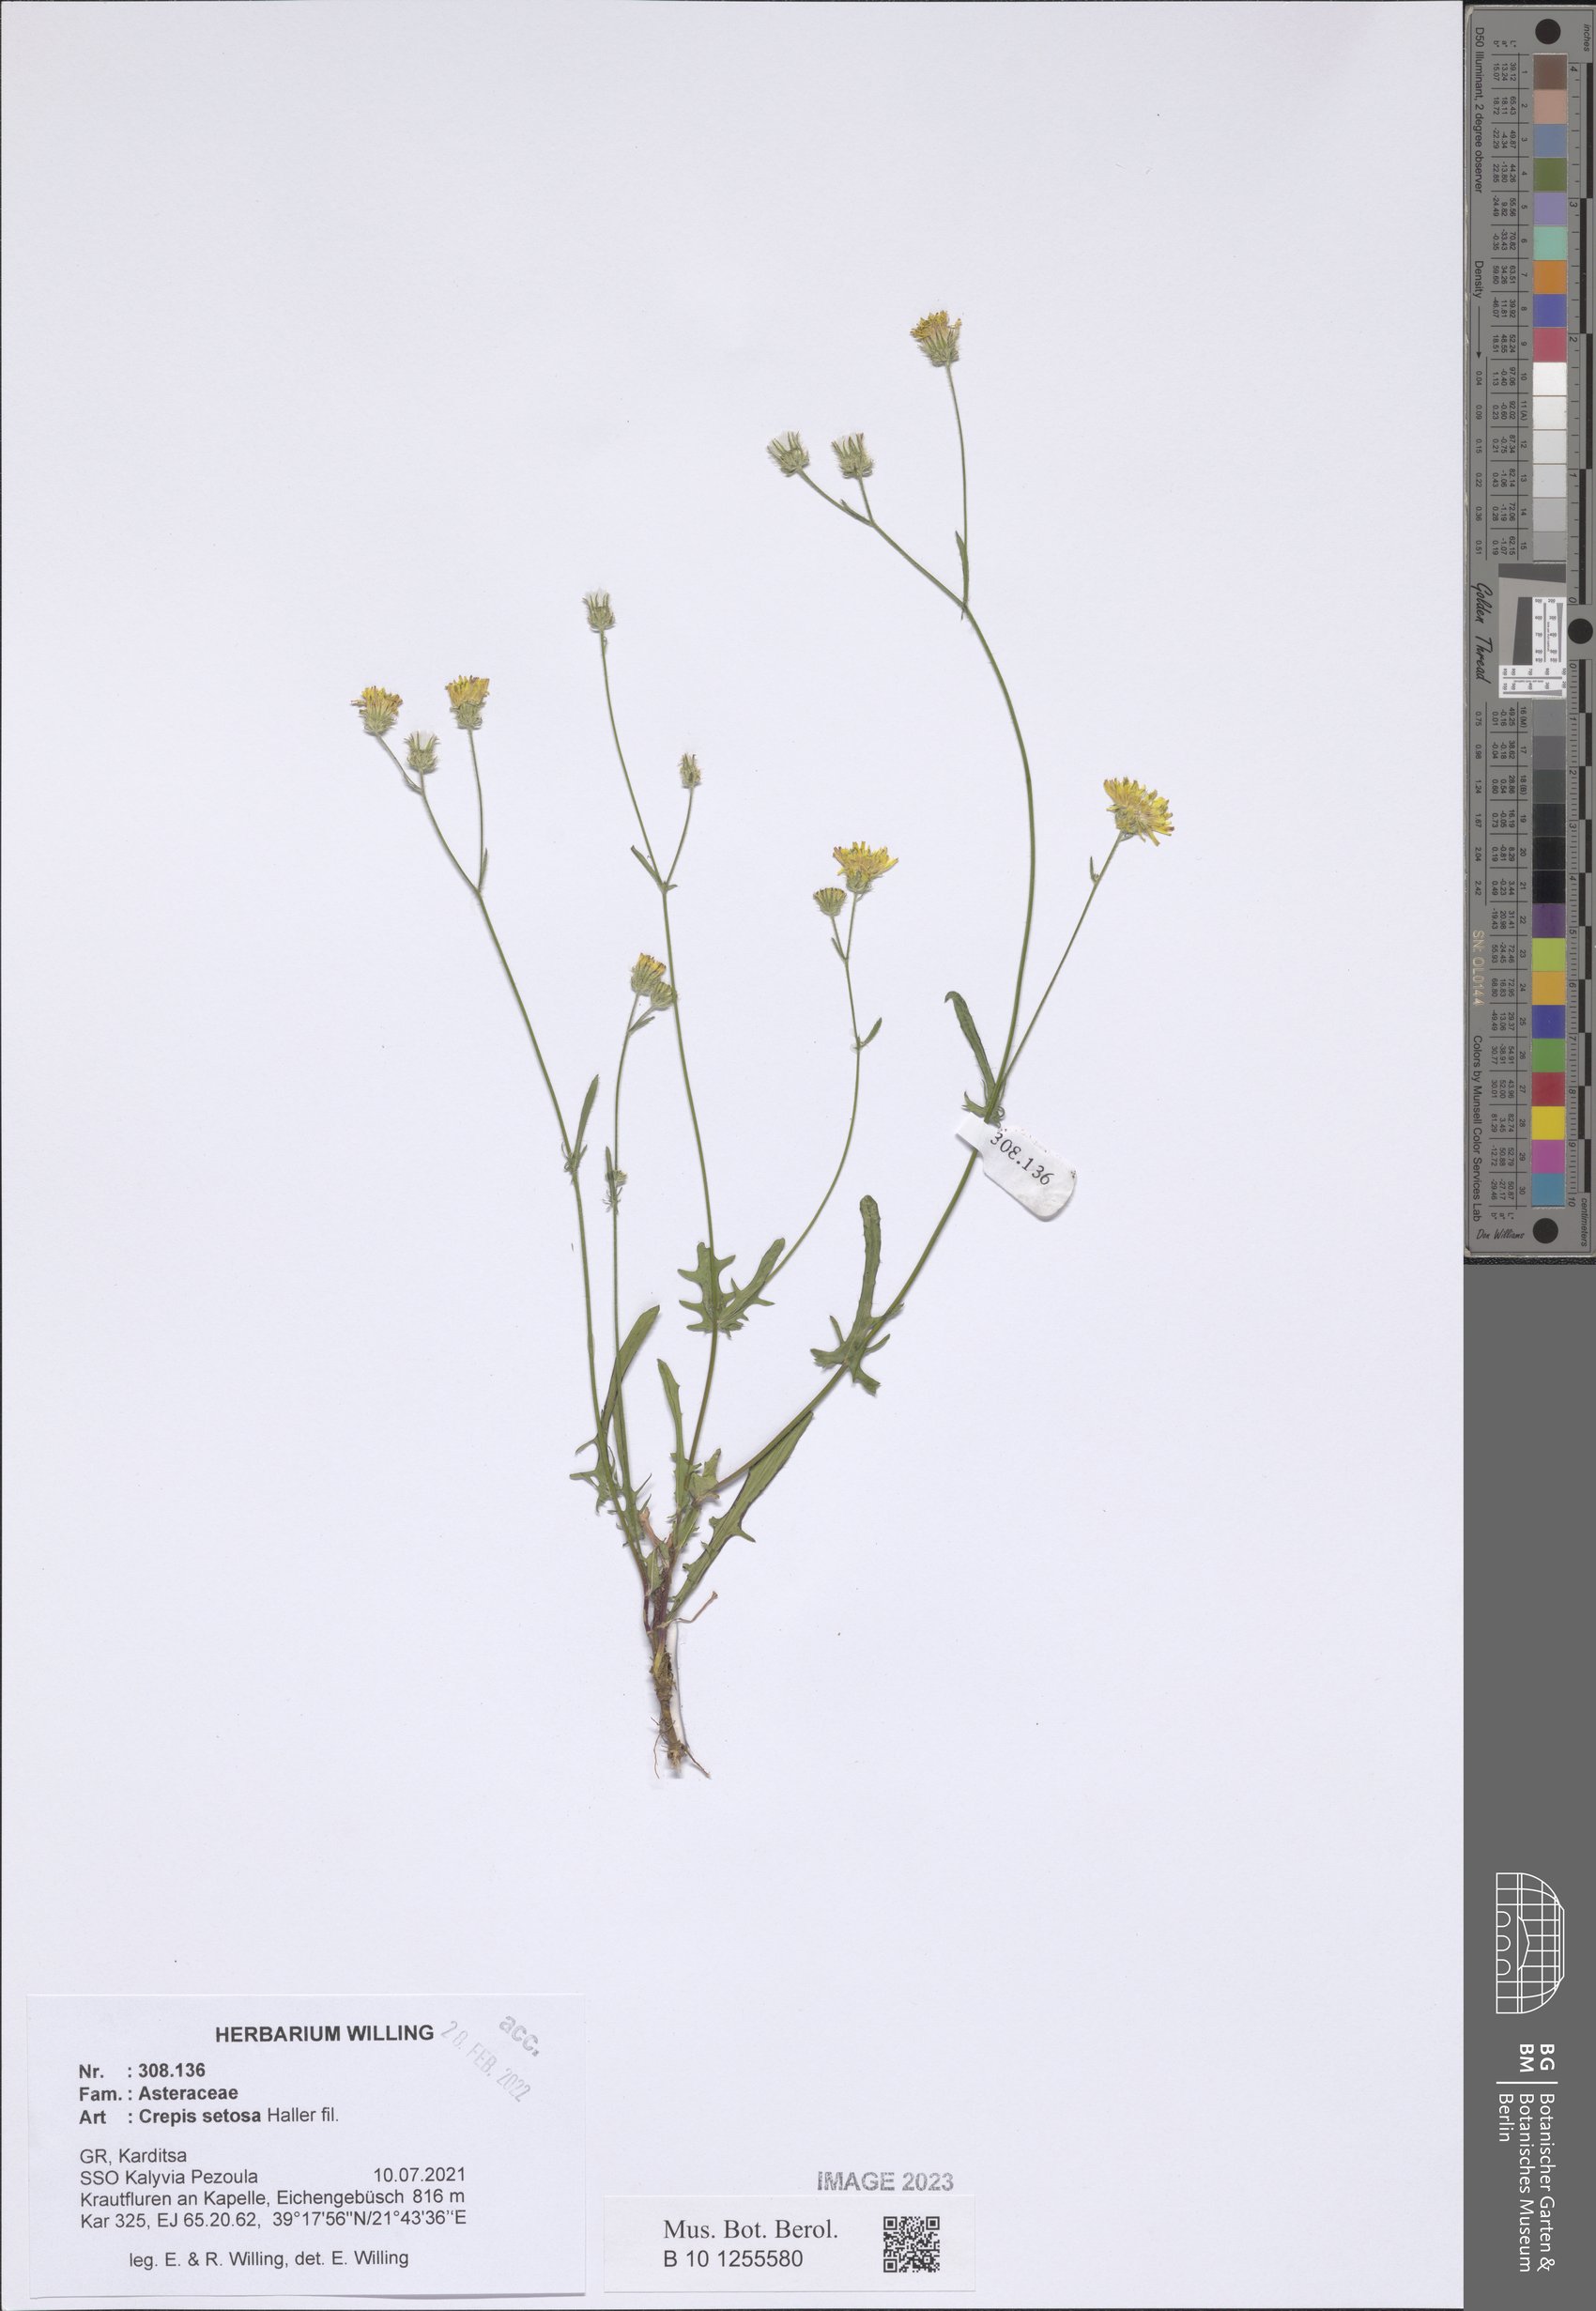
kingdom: Plantae
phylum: Tracheophyta
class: Magnoliopsida
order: Asterales
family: Asteraceae
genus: Crepis
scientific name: Crepis setosa
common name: Bristly hawk's-beard
